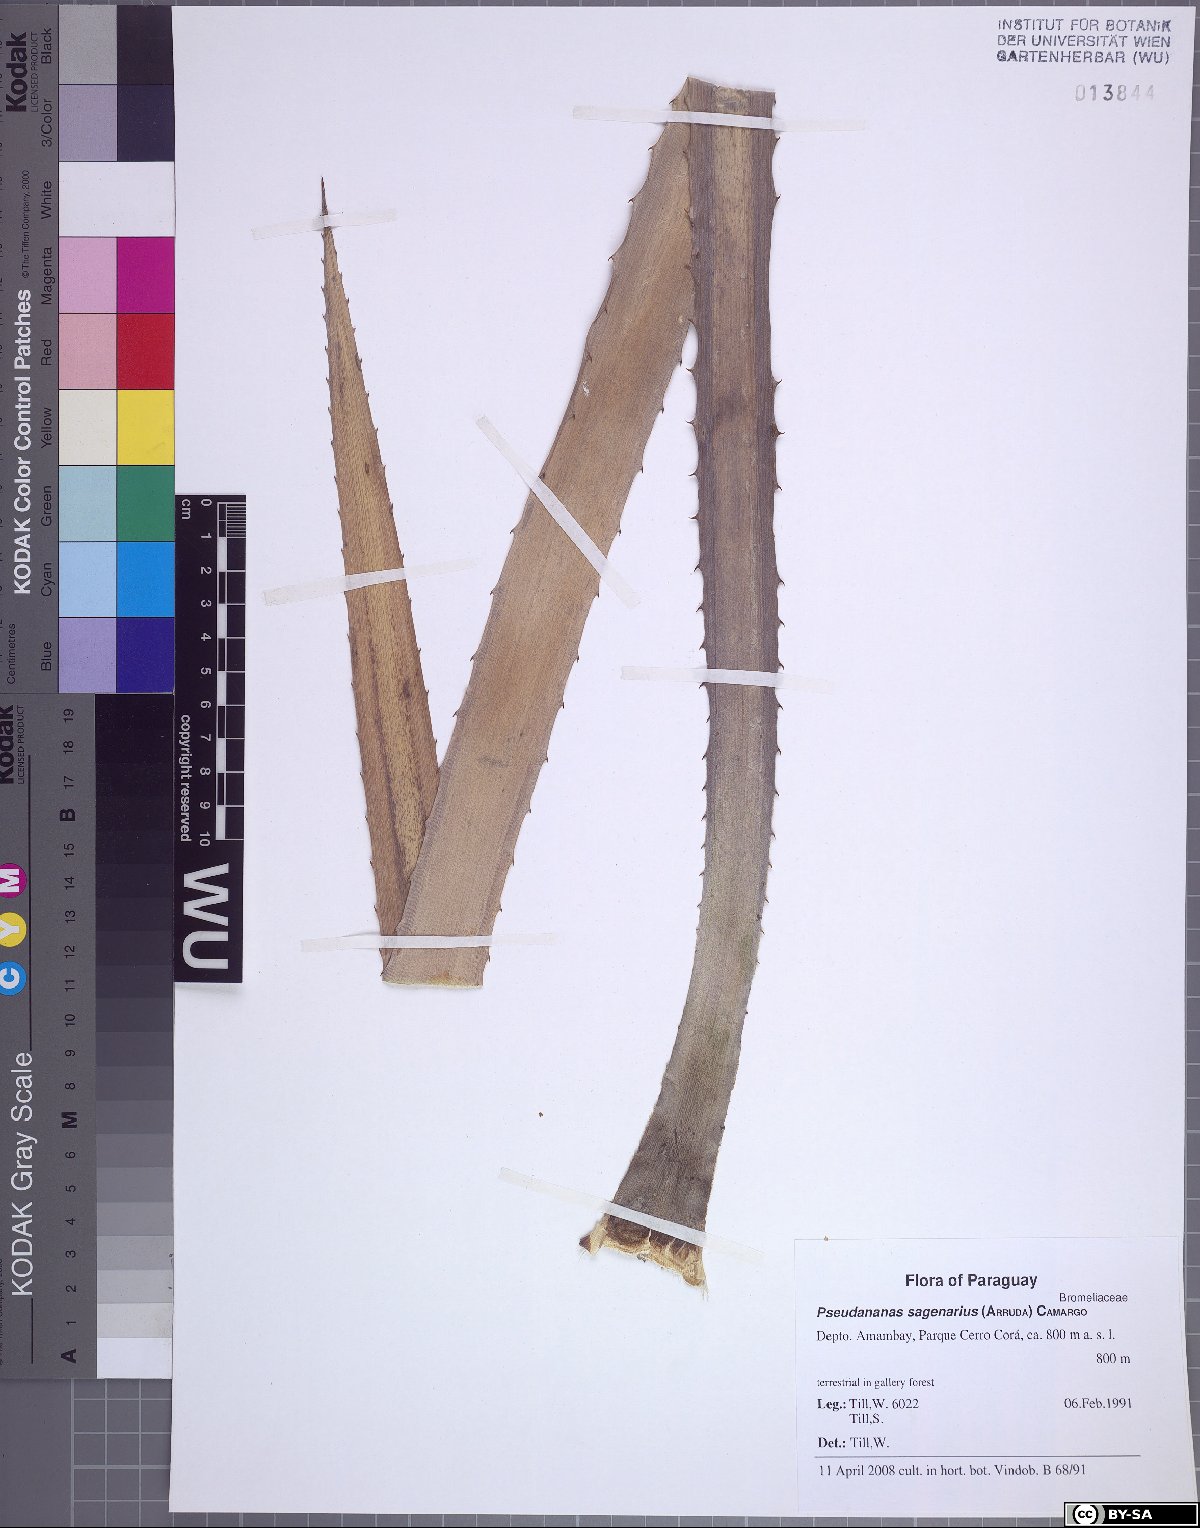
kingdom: Plantae
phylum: Tracheophyta
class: Liliopsida
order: Poales
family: Bromeliaceae
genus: Ananas
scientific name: Ananas comosus
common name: Pineapple
